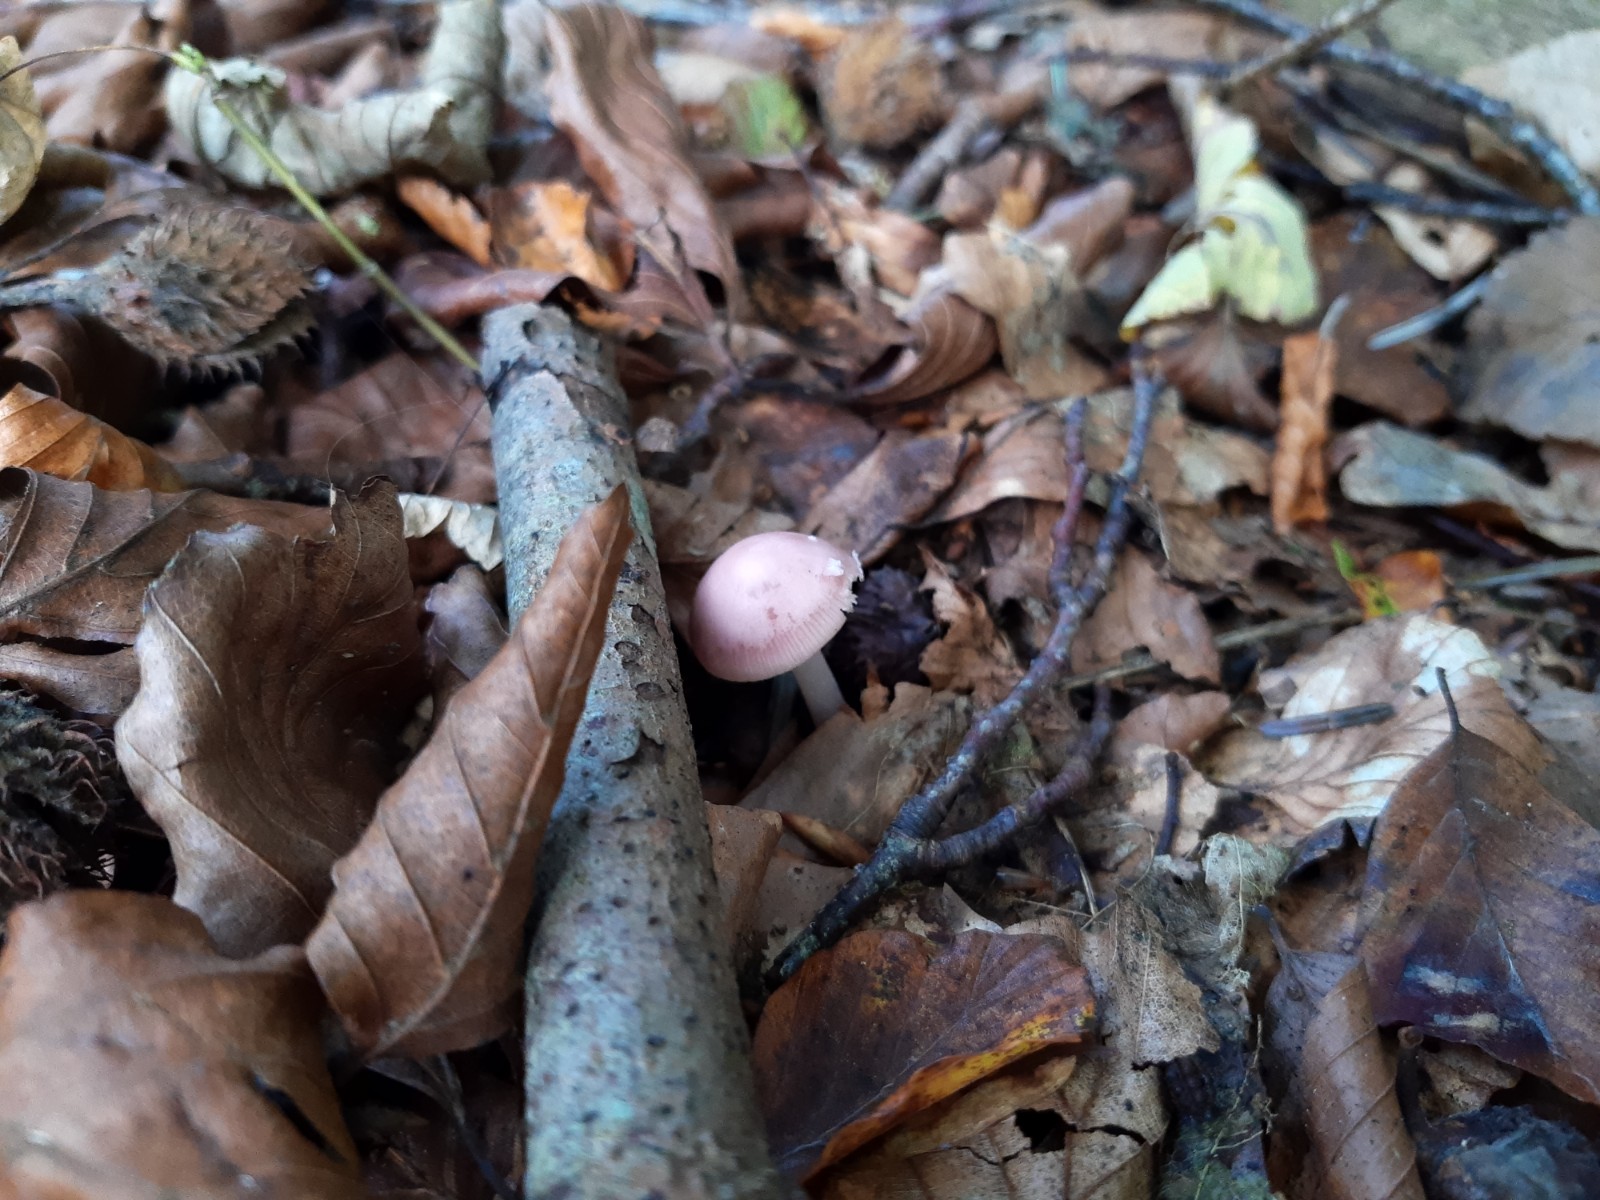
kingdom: Fungi
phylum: Basidiomycota
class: Agaricomycetes
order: Agaricales
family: Mycenaceae
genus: Mycena
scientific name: Mycena rosea
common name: rosa huesvamp
